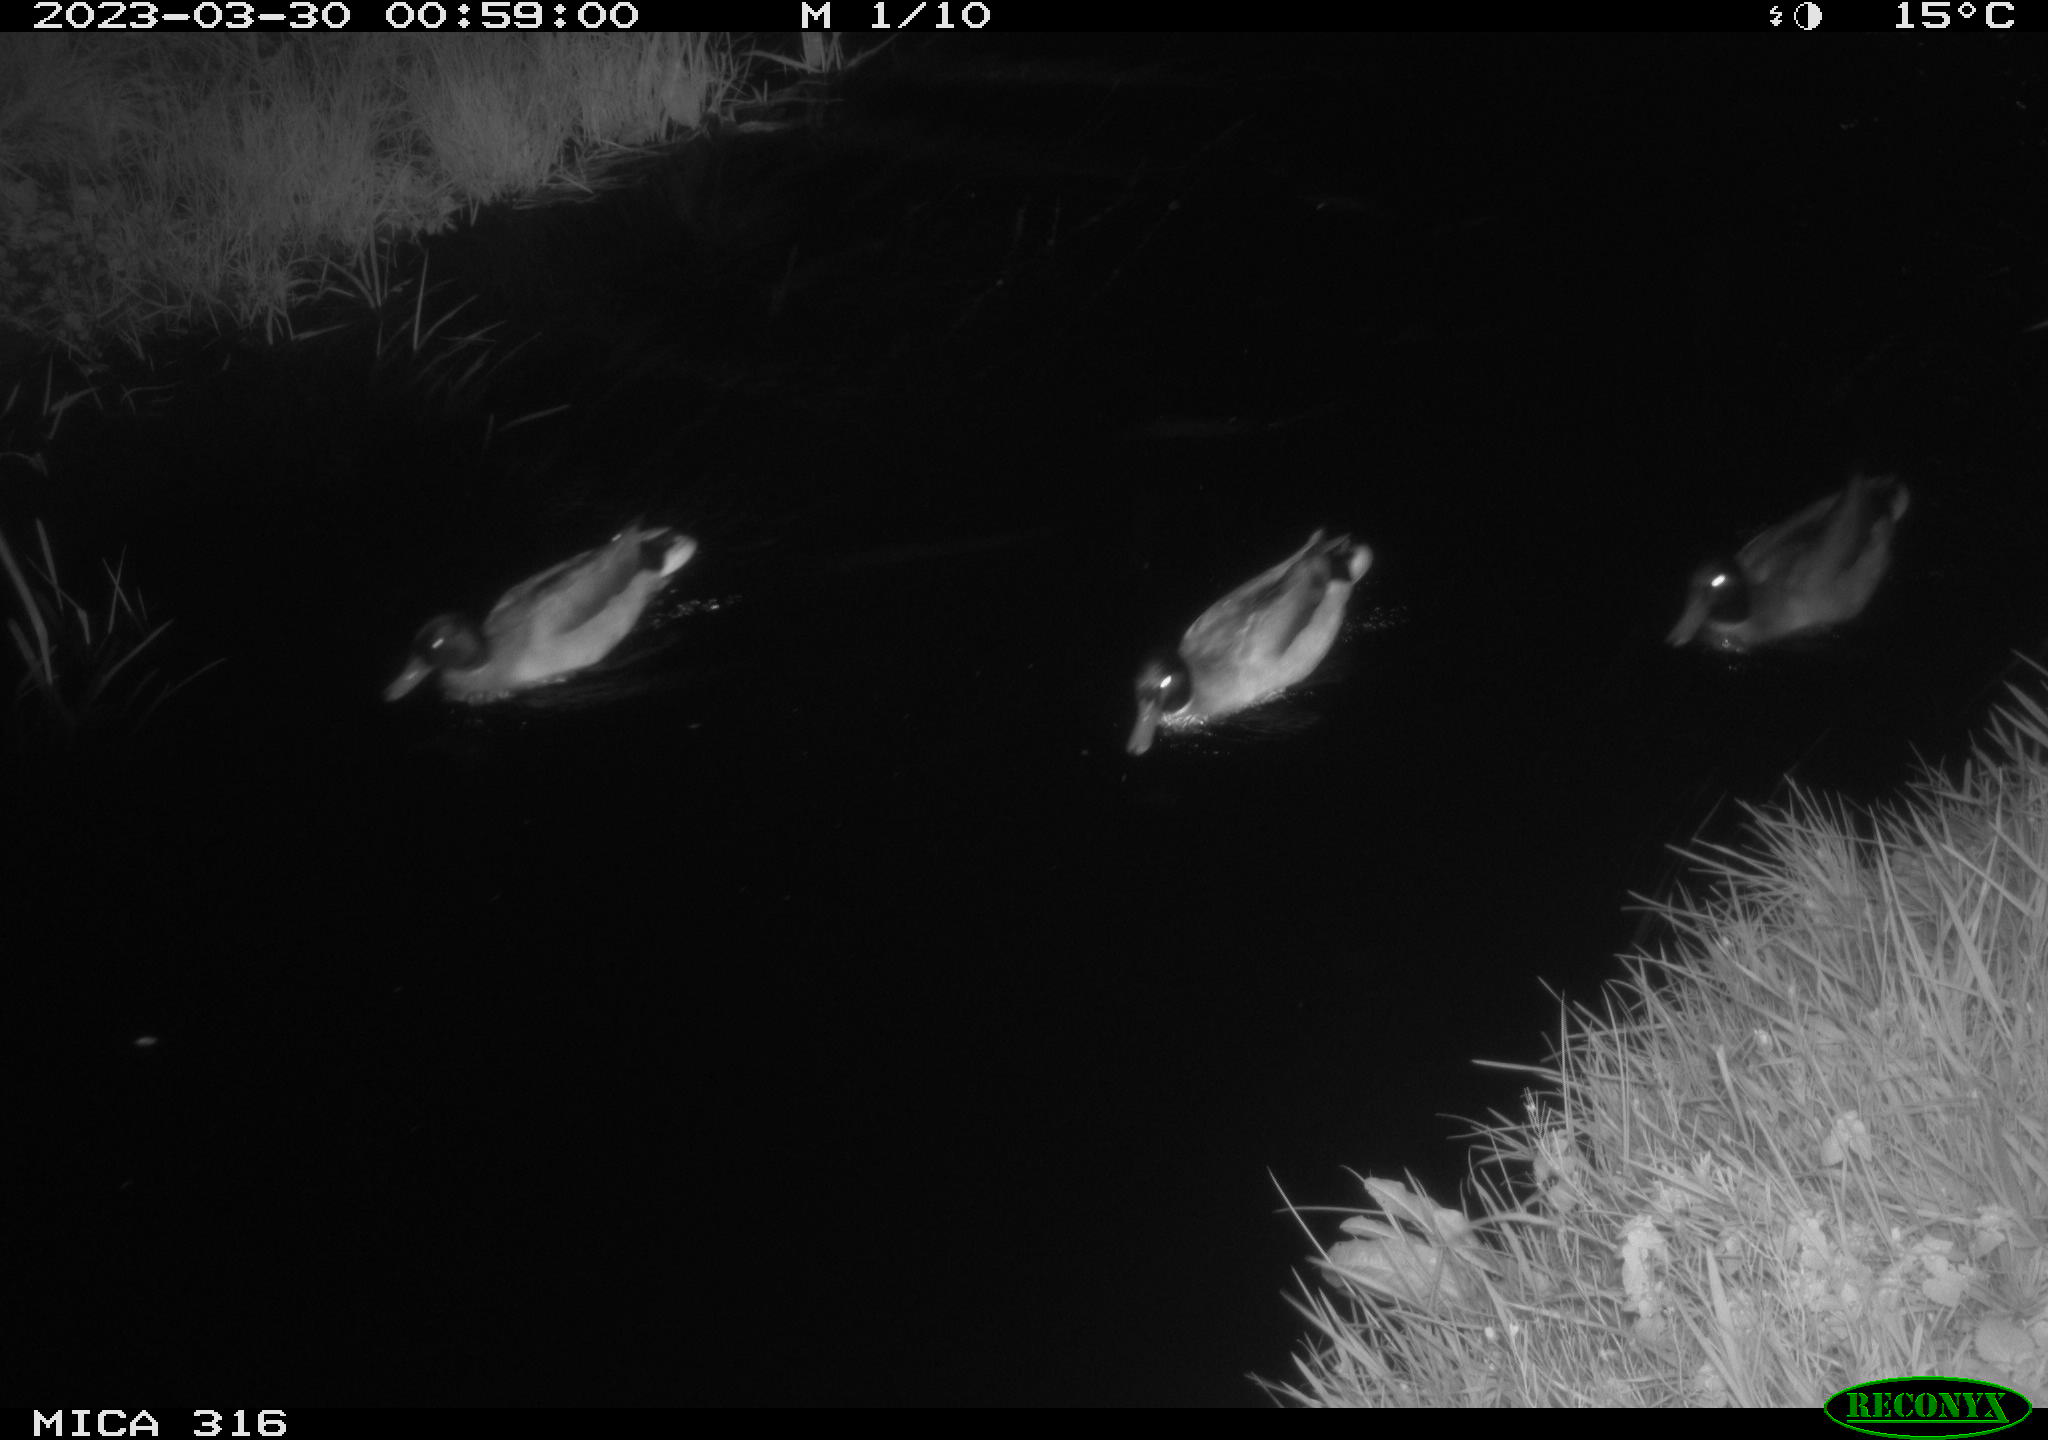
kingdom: Animalia
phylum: Chordata
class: Aves
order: Anseriformes
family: Anatidae
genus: Anas
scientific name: Anas
